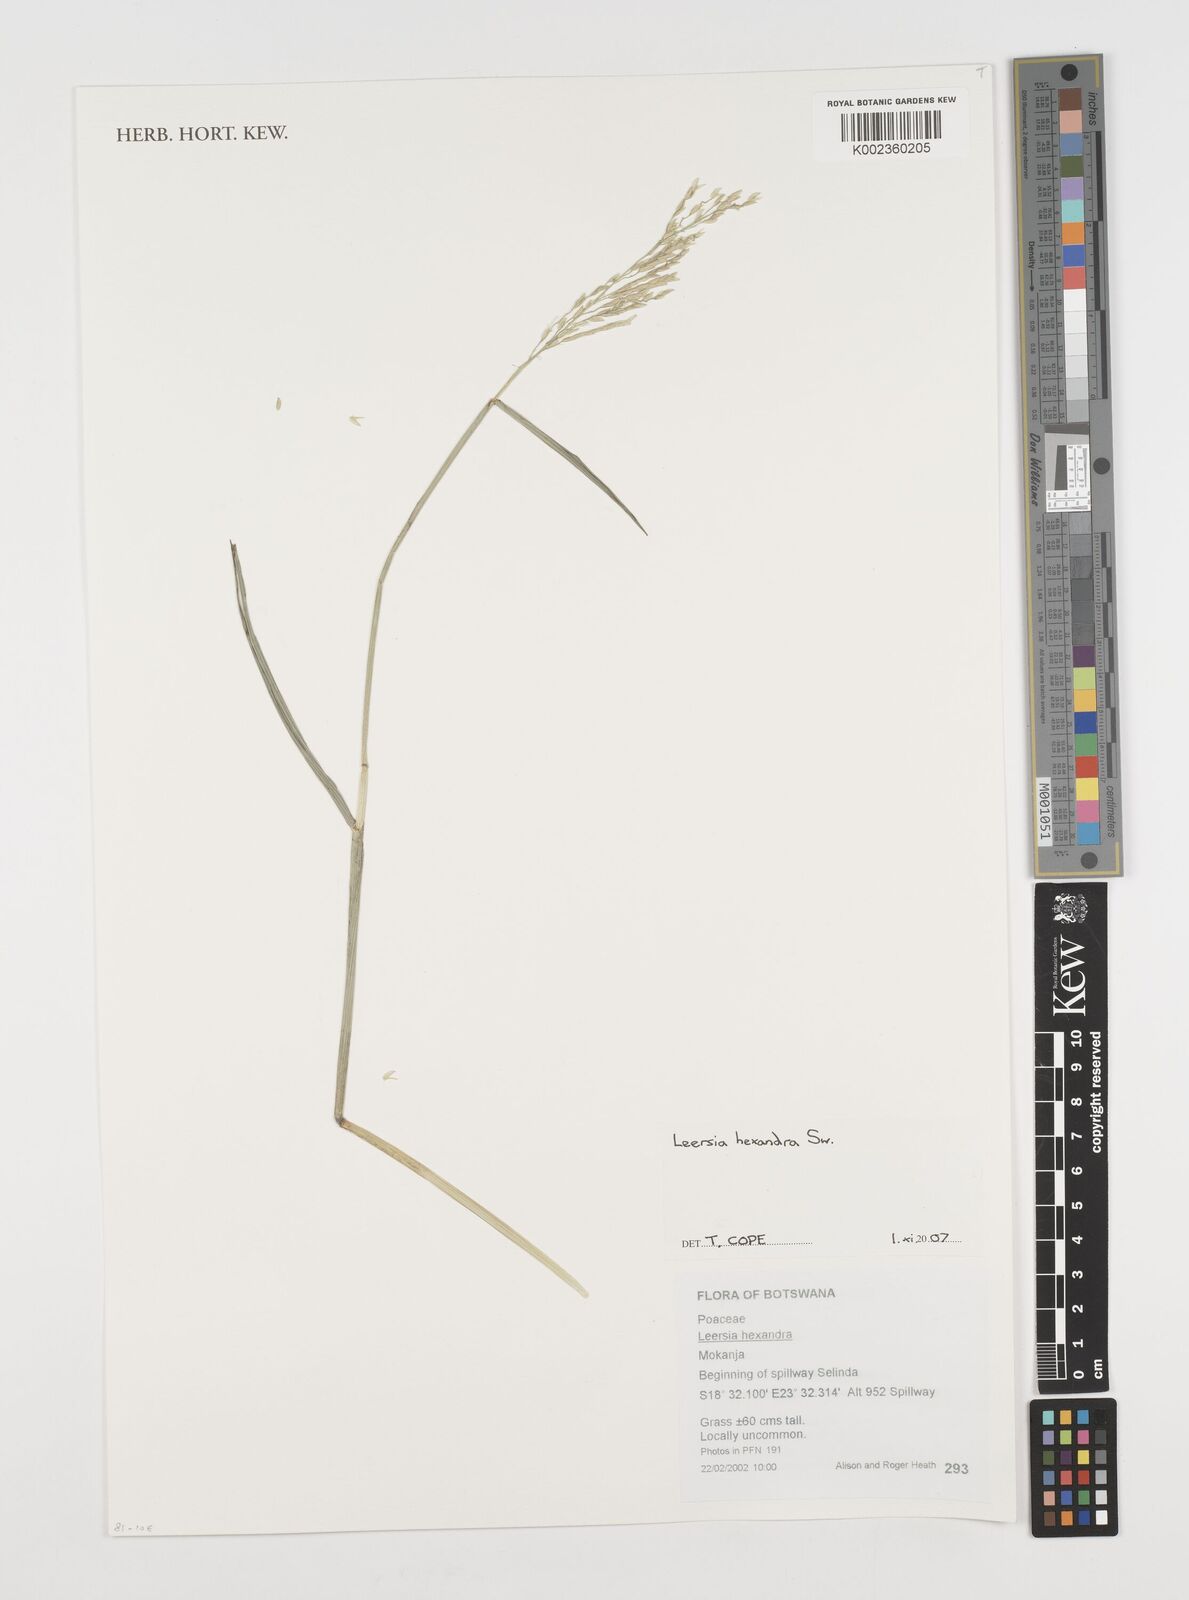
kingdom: Plantae
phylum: Tracheophyta
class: Liliopsida
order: Poales
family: Poaceae
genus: Leersia
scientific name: Leersia hexandra
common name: Southern cut grass
